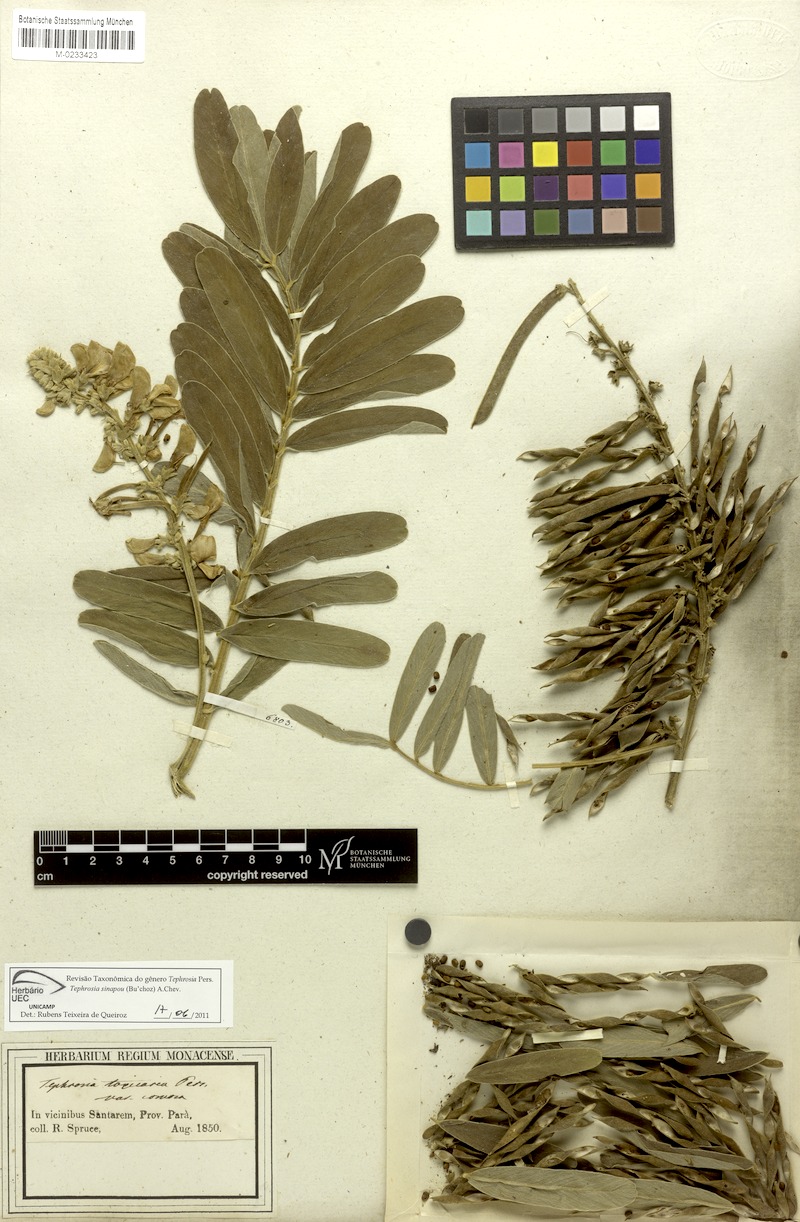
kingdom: Plantae
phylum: Tracheophyta
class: Magnoliopsida
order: Fabales
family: Fabaceae
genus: Tephrosia
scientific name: Tephrosia sinapou
